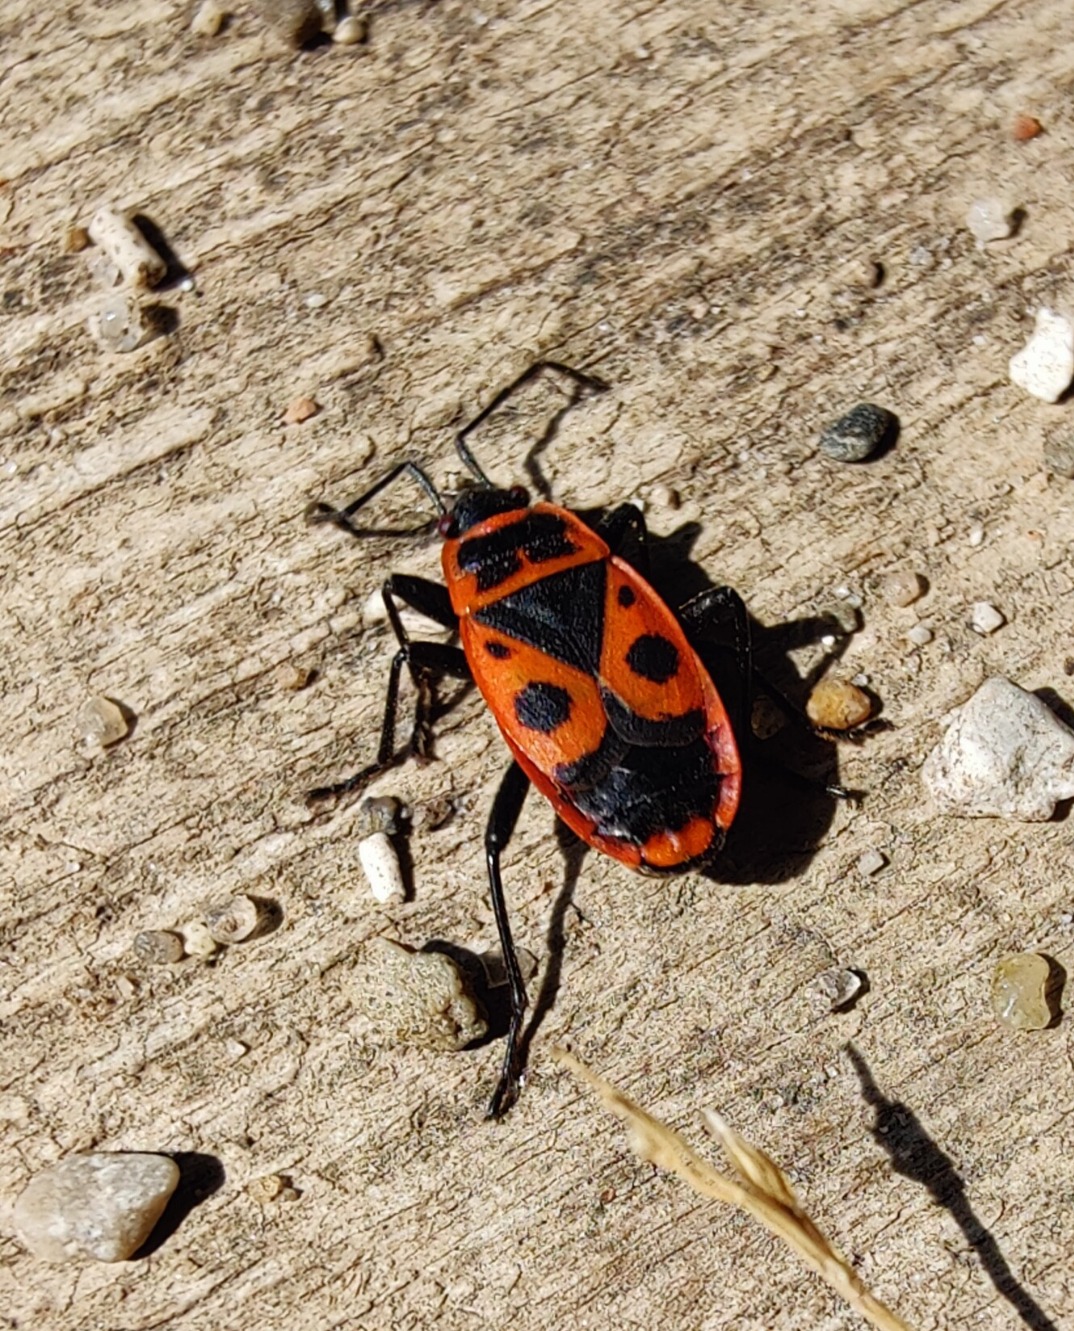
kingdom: Animalia
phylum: Arthropoda
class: Insecta
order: Hemiptera
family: Pyrrhocoridae
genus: Pyrrhocoris
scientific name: Pyrrhocoris apterus
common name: Ildtæge
